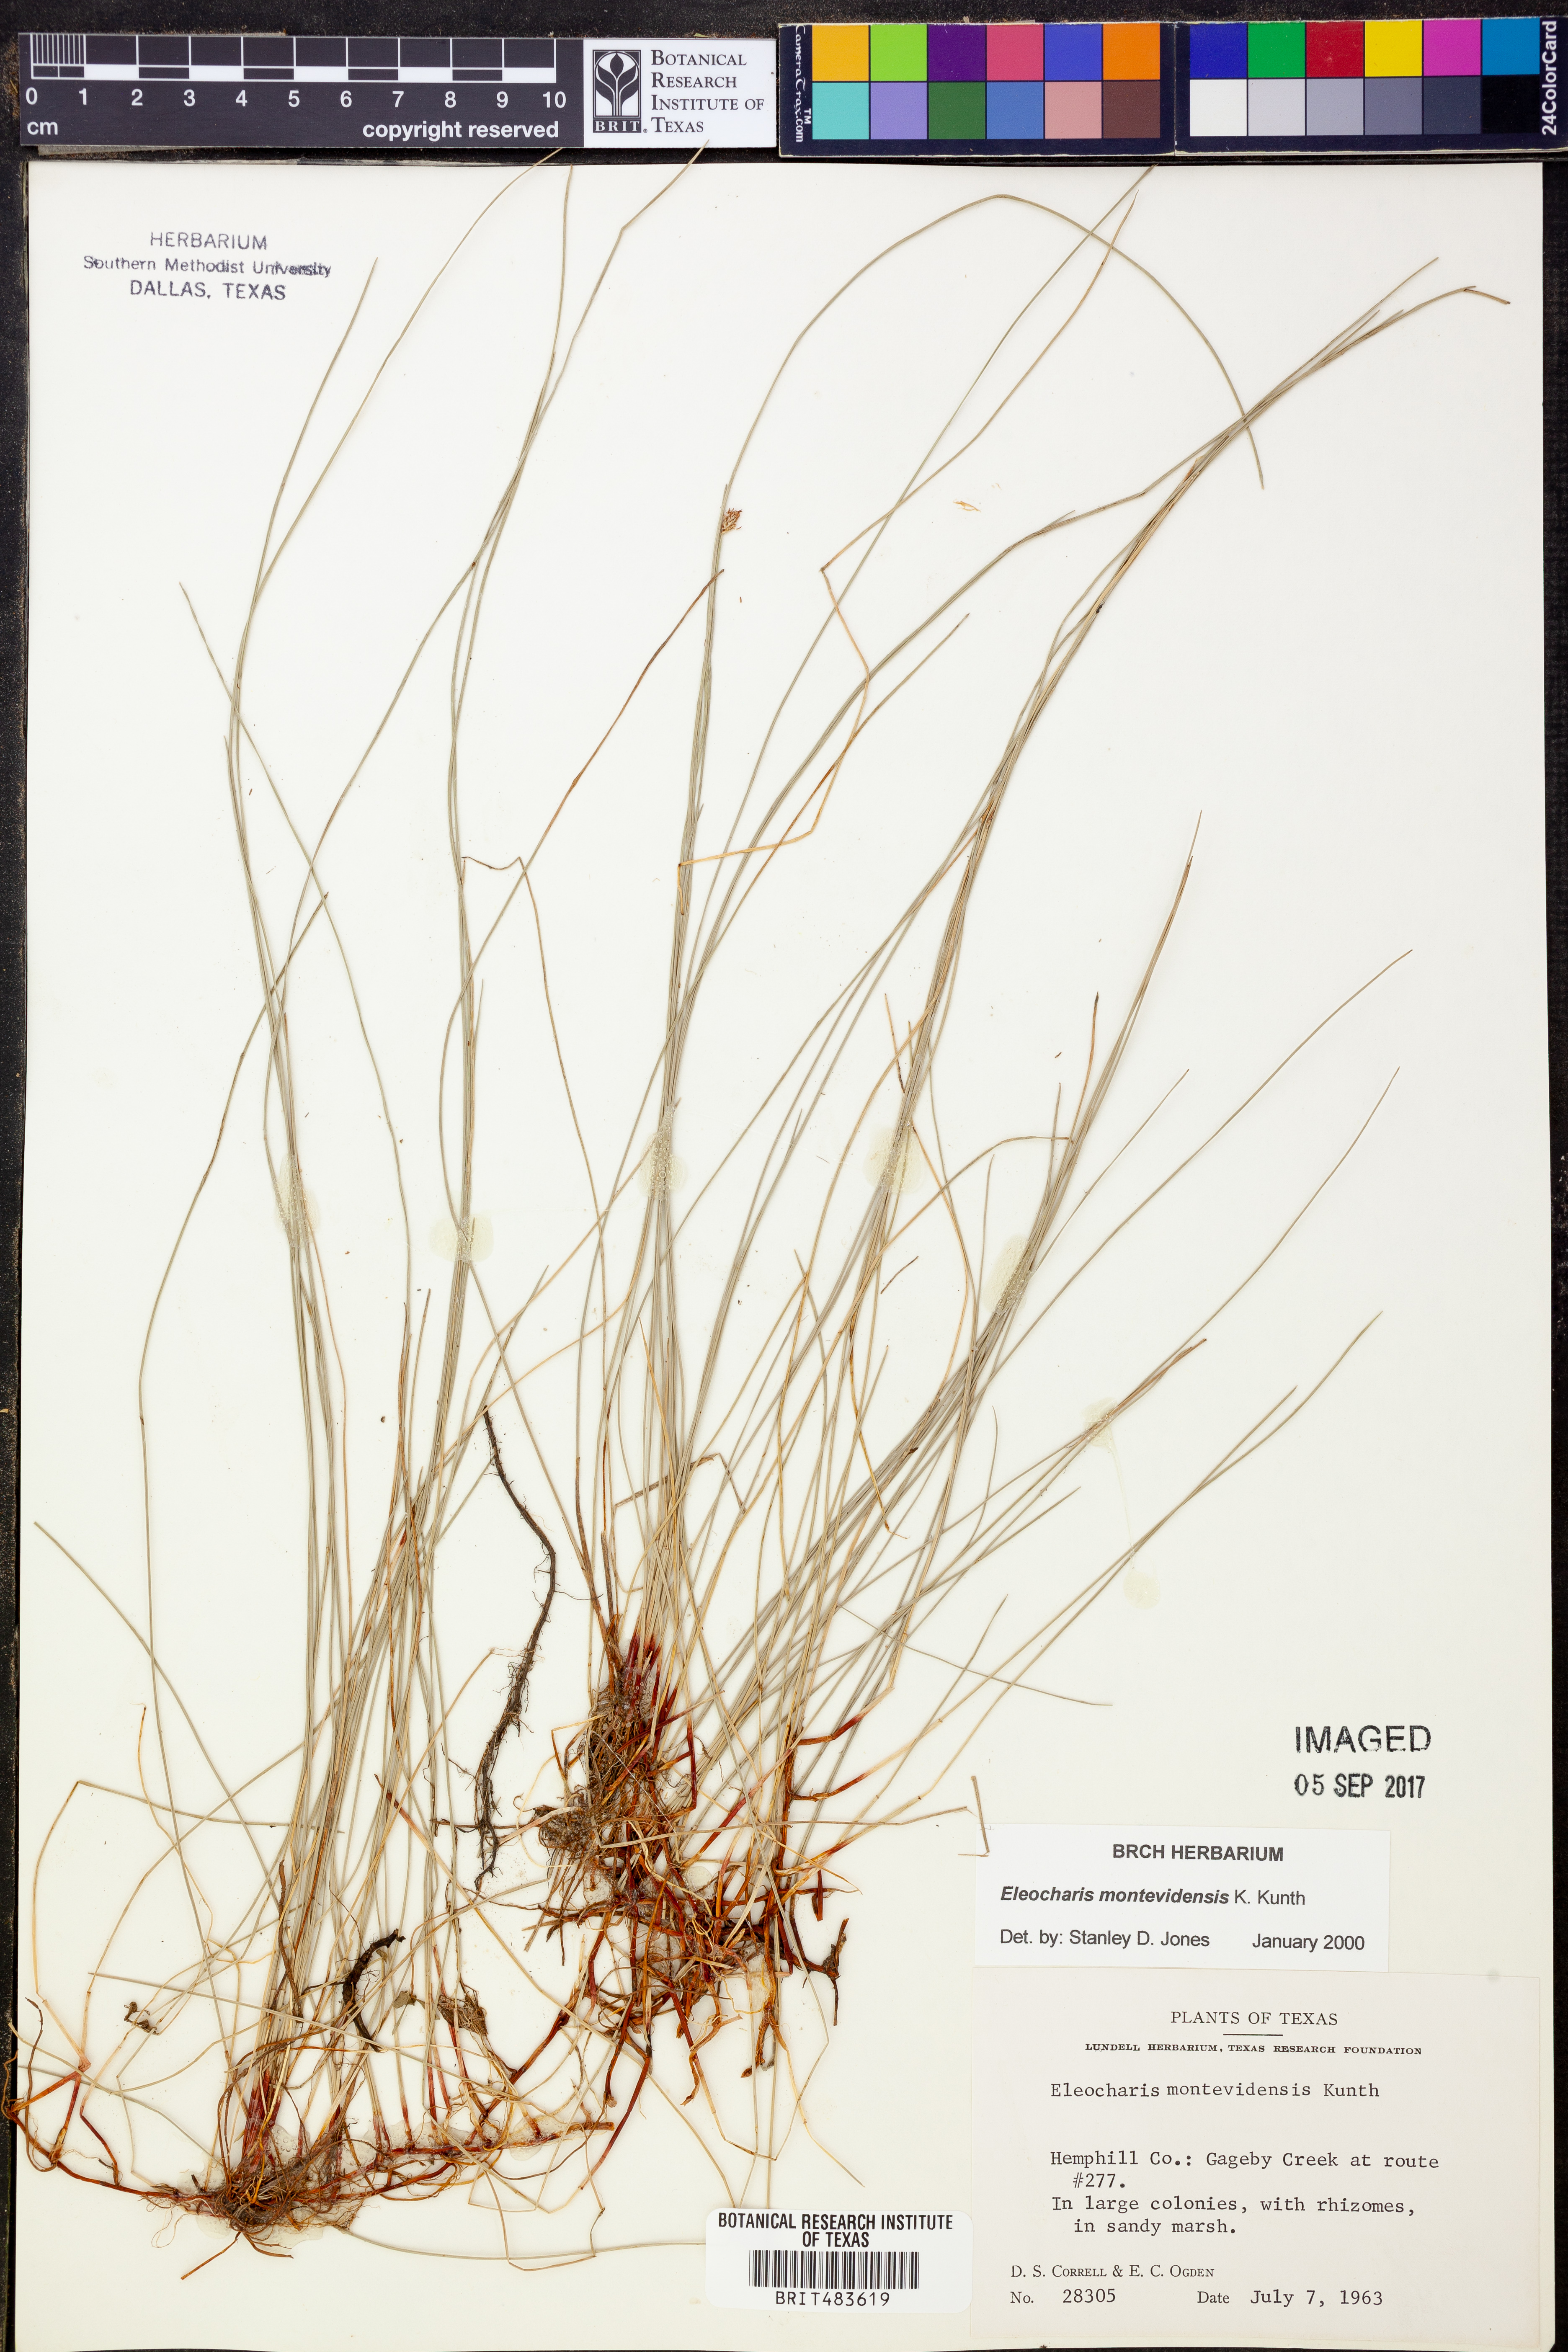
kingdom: Plantae
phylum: Tracheophyta
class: Liliopsida
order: Poales
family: Cyperaceae
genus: Eleocharis
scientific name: Eleocharis montevidensis
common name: Sand spike-rush
